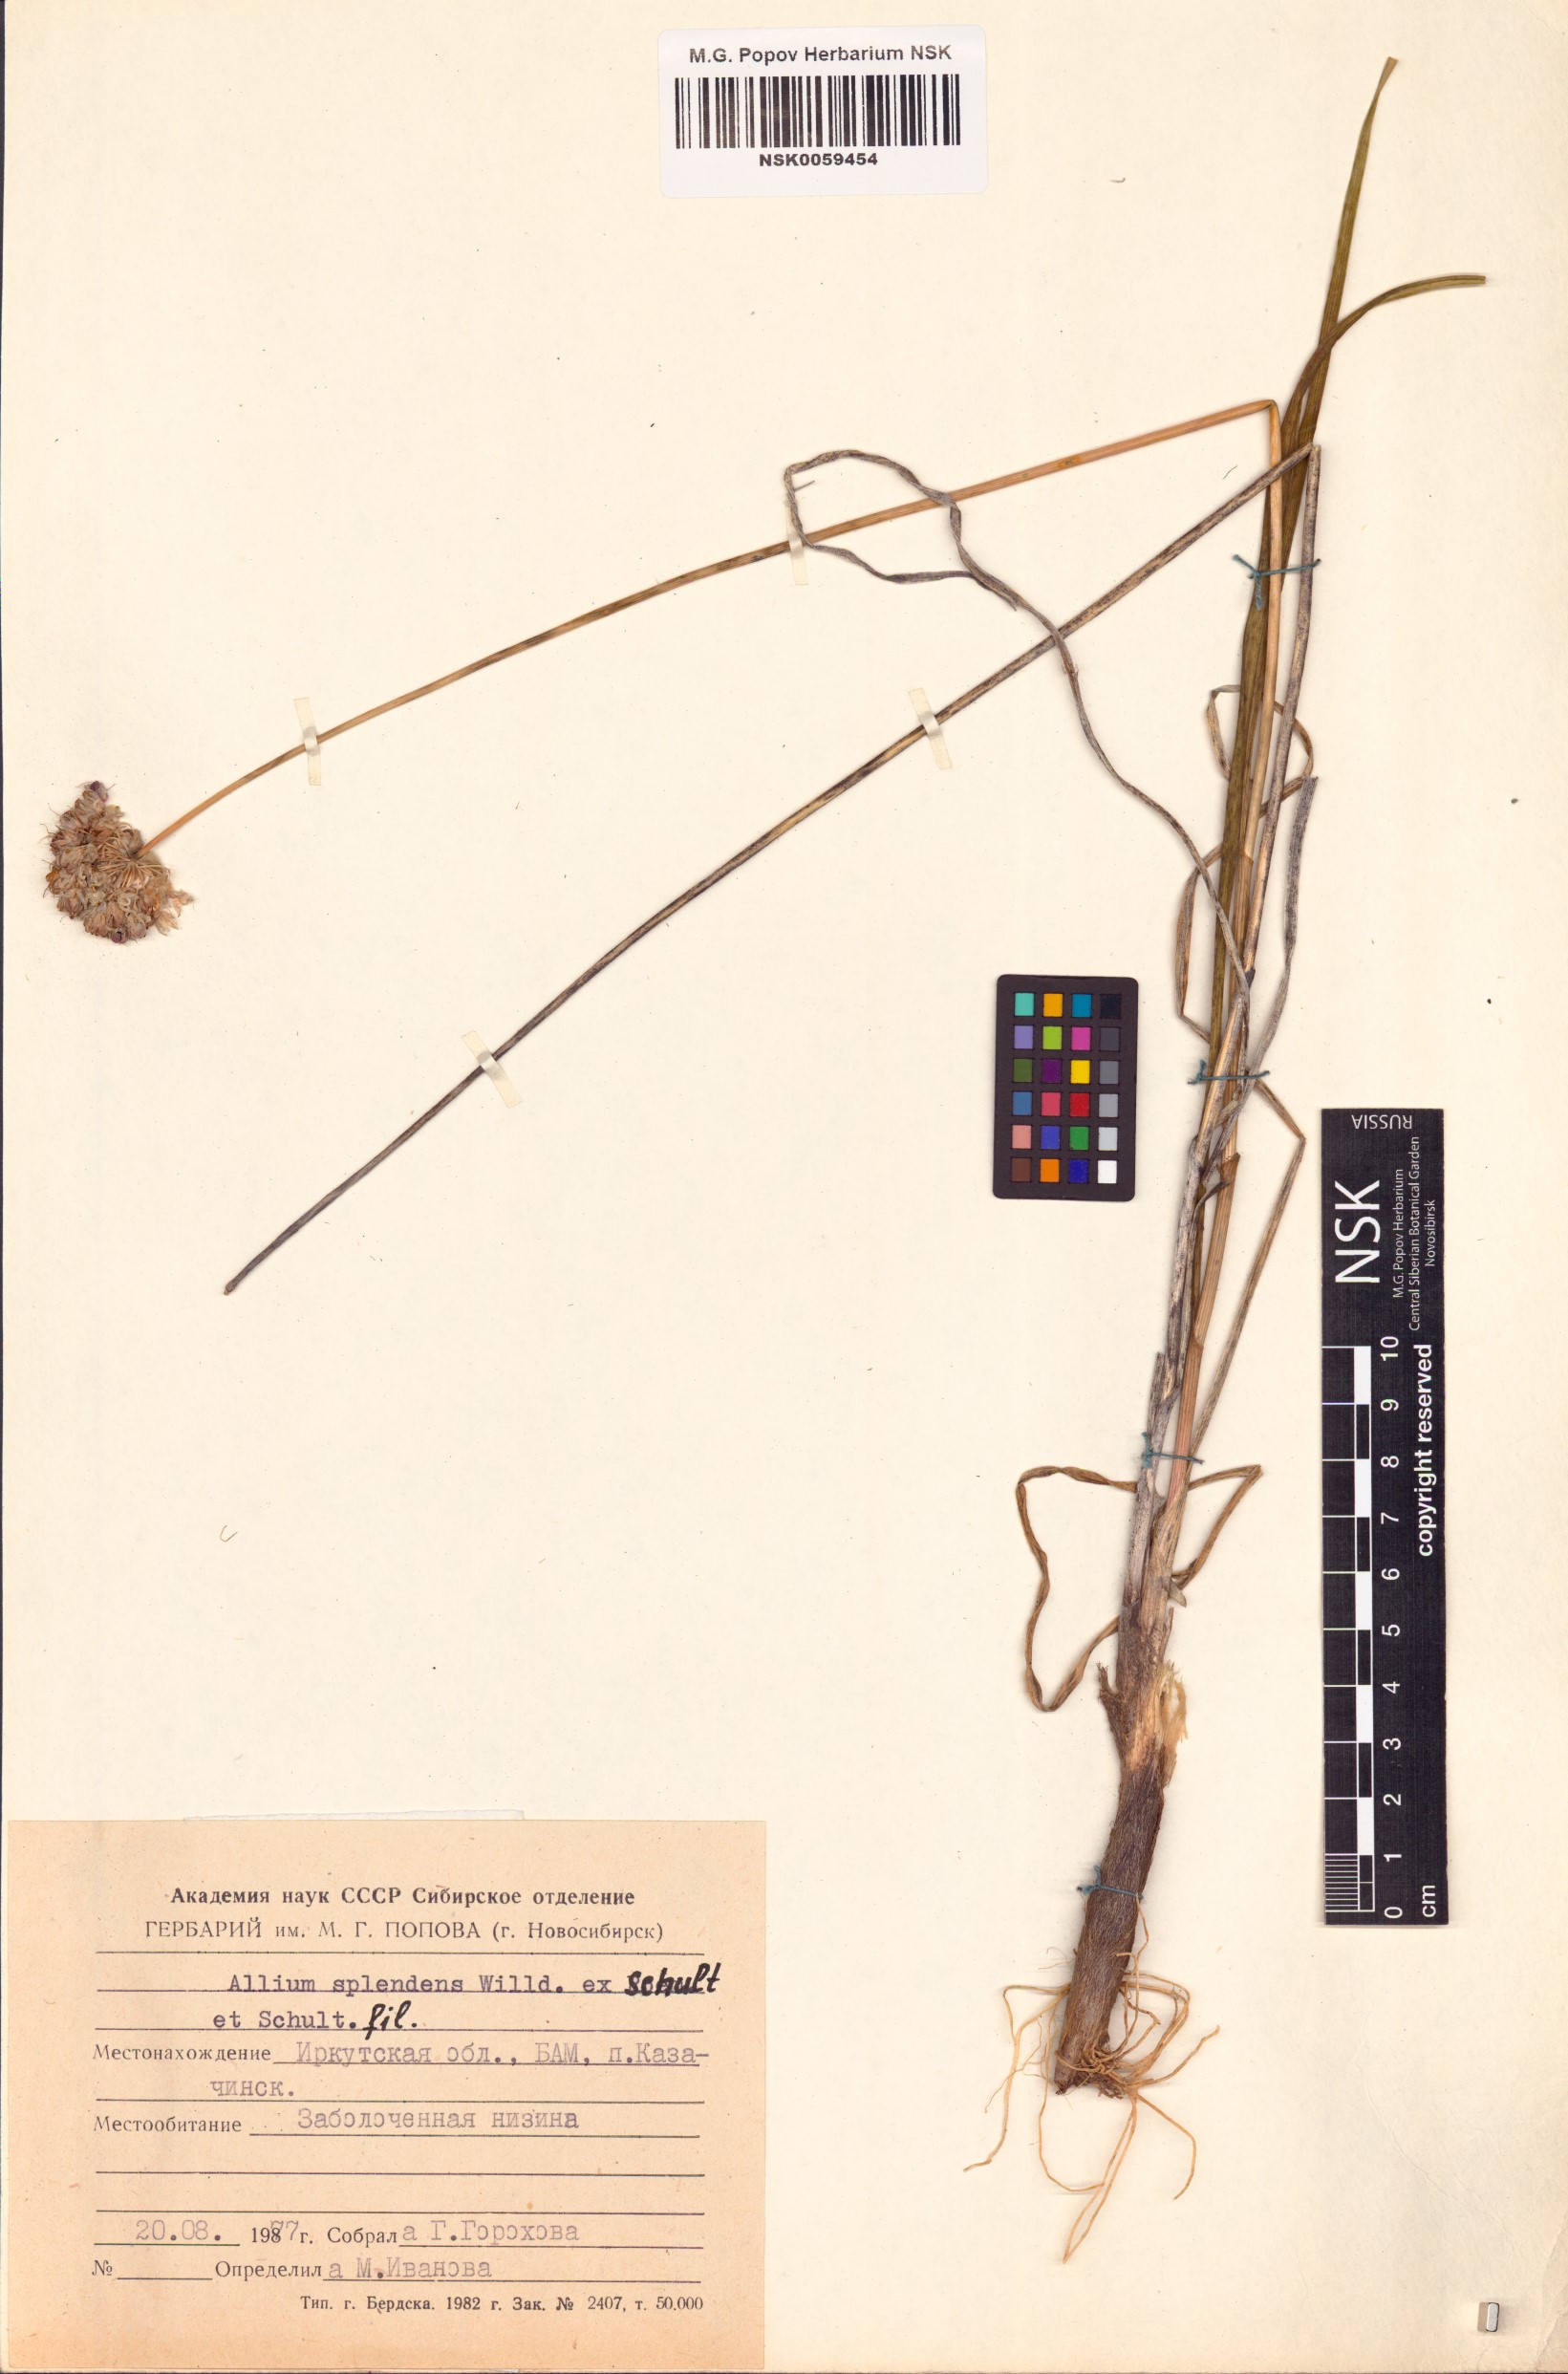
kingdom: Plantae
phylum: Tracheophyta
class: Liliopsida
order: Asparagales
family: Amaryllidaceae
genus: Allium
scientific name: Allium splendens
